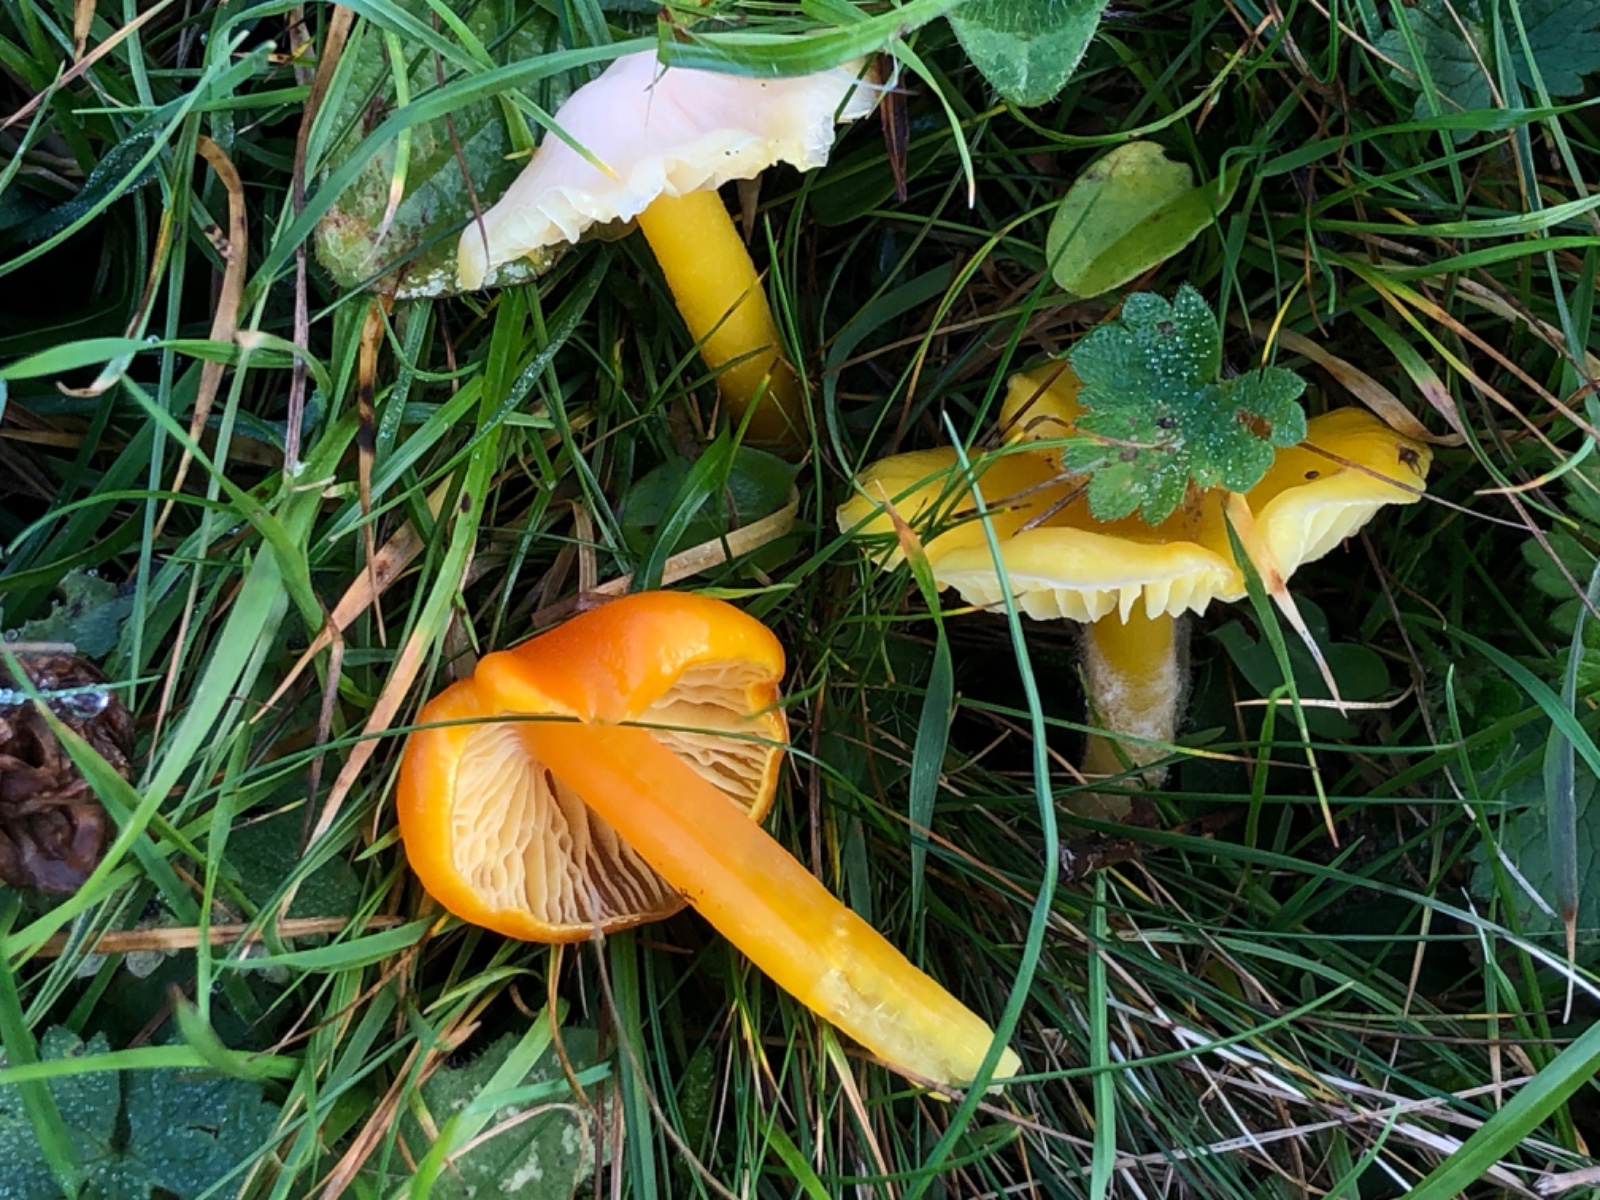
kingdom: Fungi
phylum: Basidiomycota
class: Agaricomycetes
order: Agaricales
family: Hygrophoraceae
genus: Hygrocybe
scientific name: Hygrocybe ceracea
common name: voksgul vokshat
